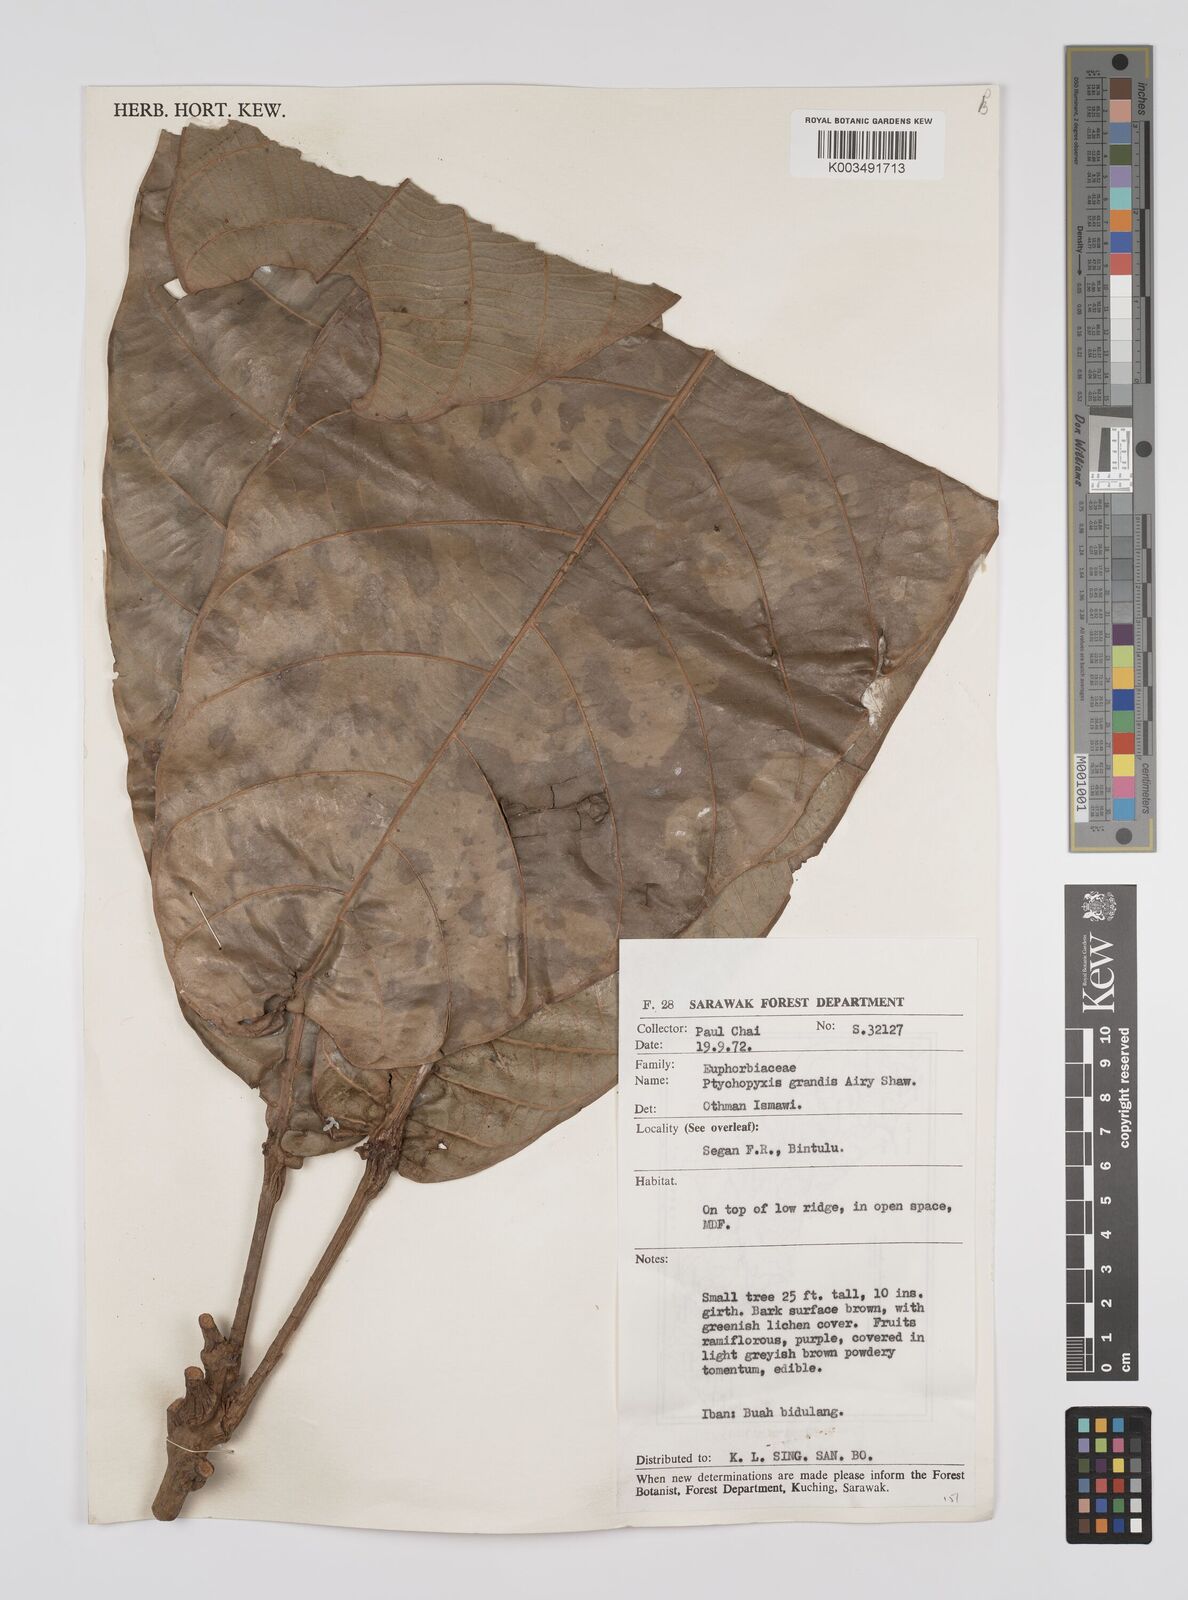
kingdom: Plantae
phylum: Tracheophyta
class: Magnoliopsida
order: Malpighiales
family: Euphorbiaceae
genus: Ptychopyxis
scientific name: Ptychopyxis grandis
